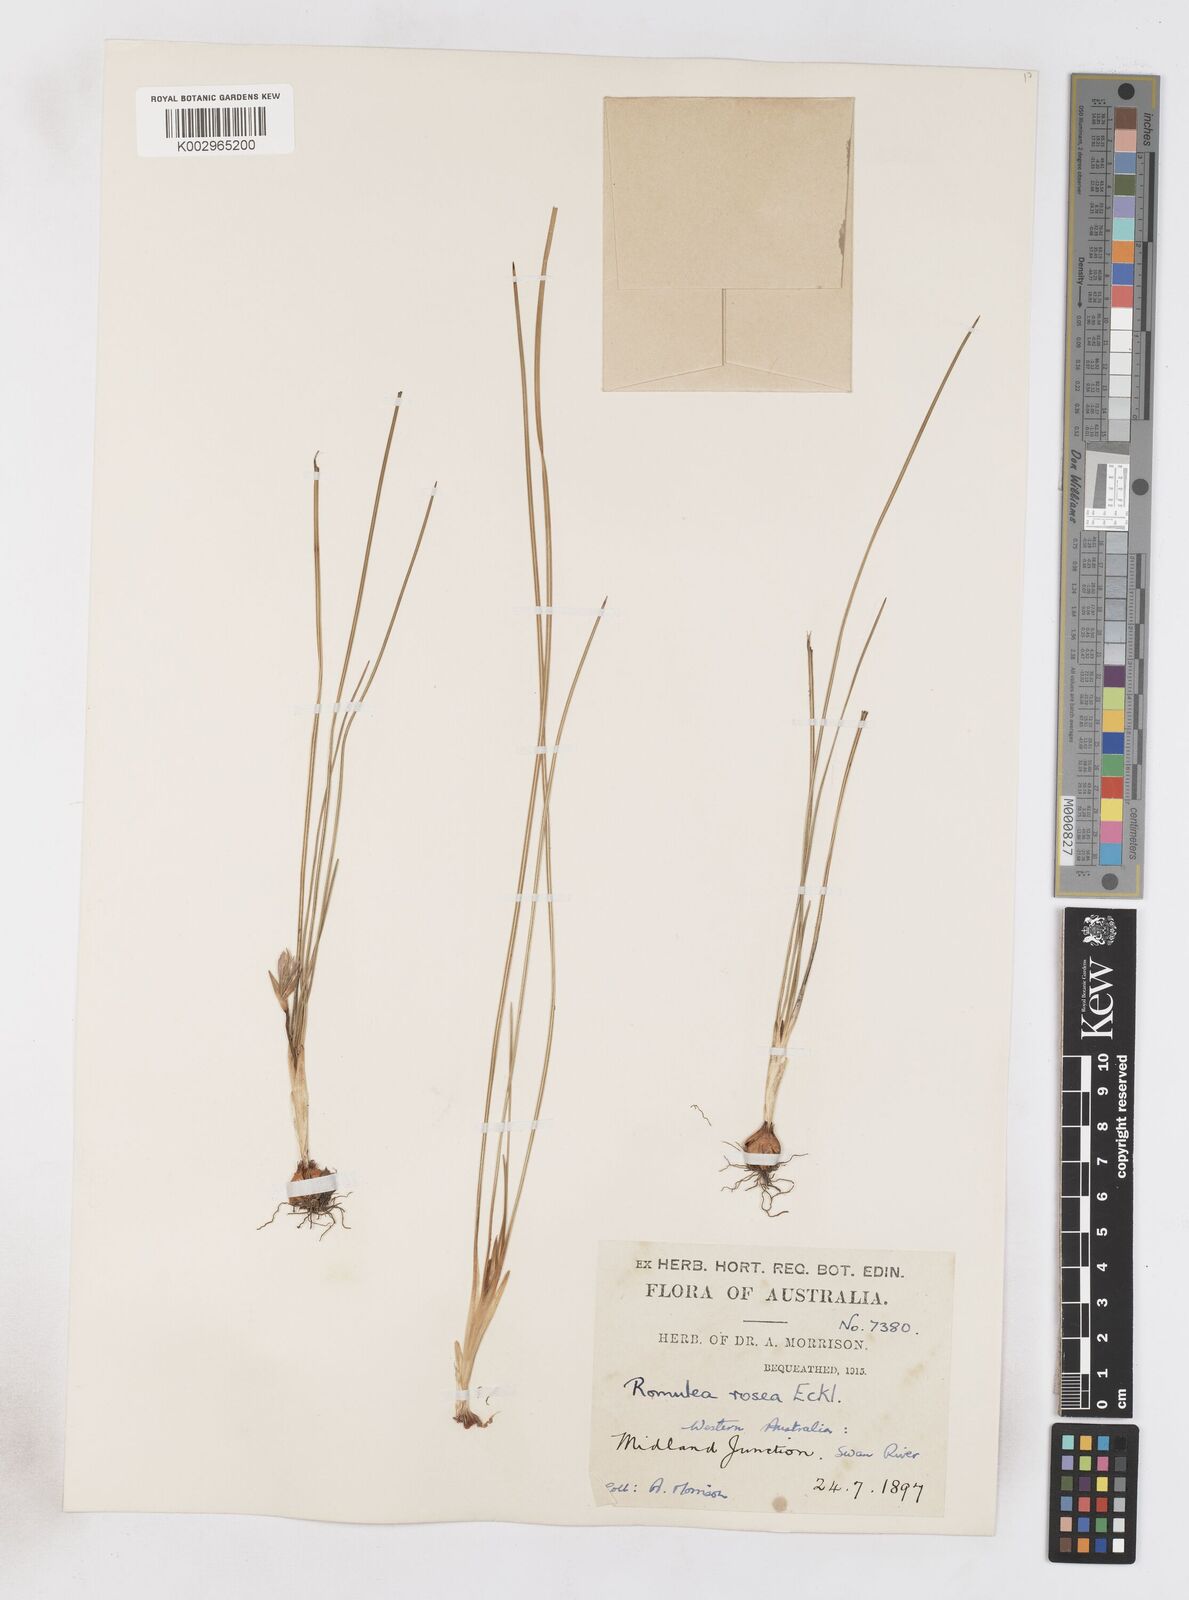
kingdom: Plantae
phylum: Tracheophyta
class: Liliopsida
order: Asparagales
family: Iridaceae
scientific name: Iridaceae
